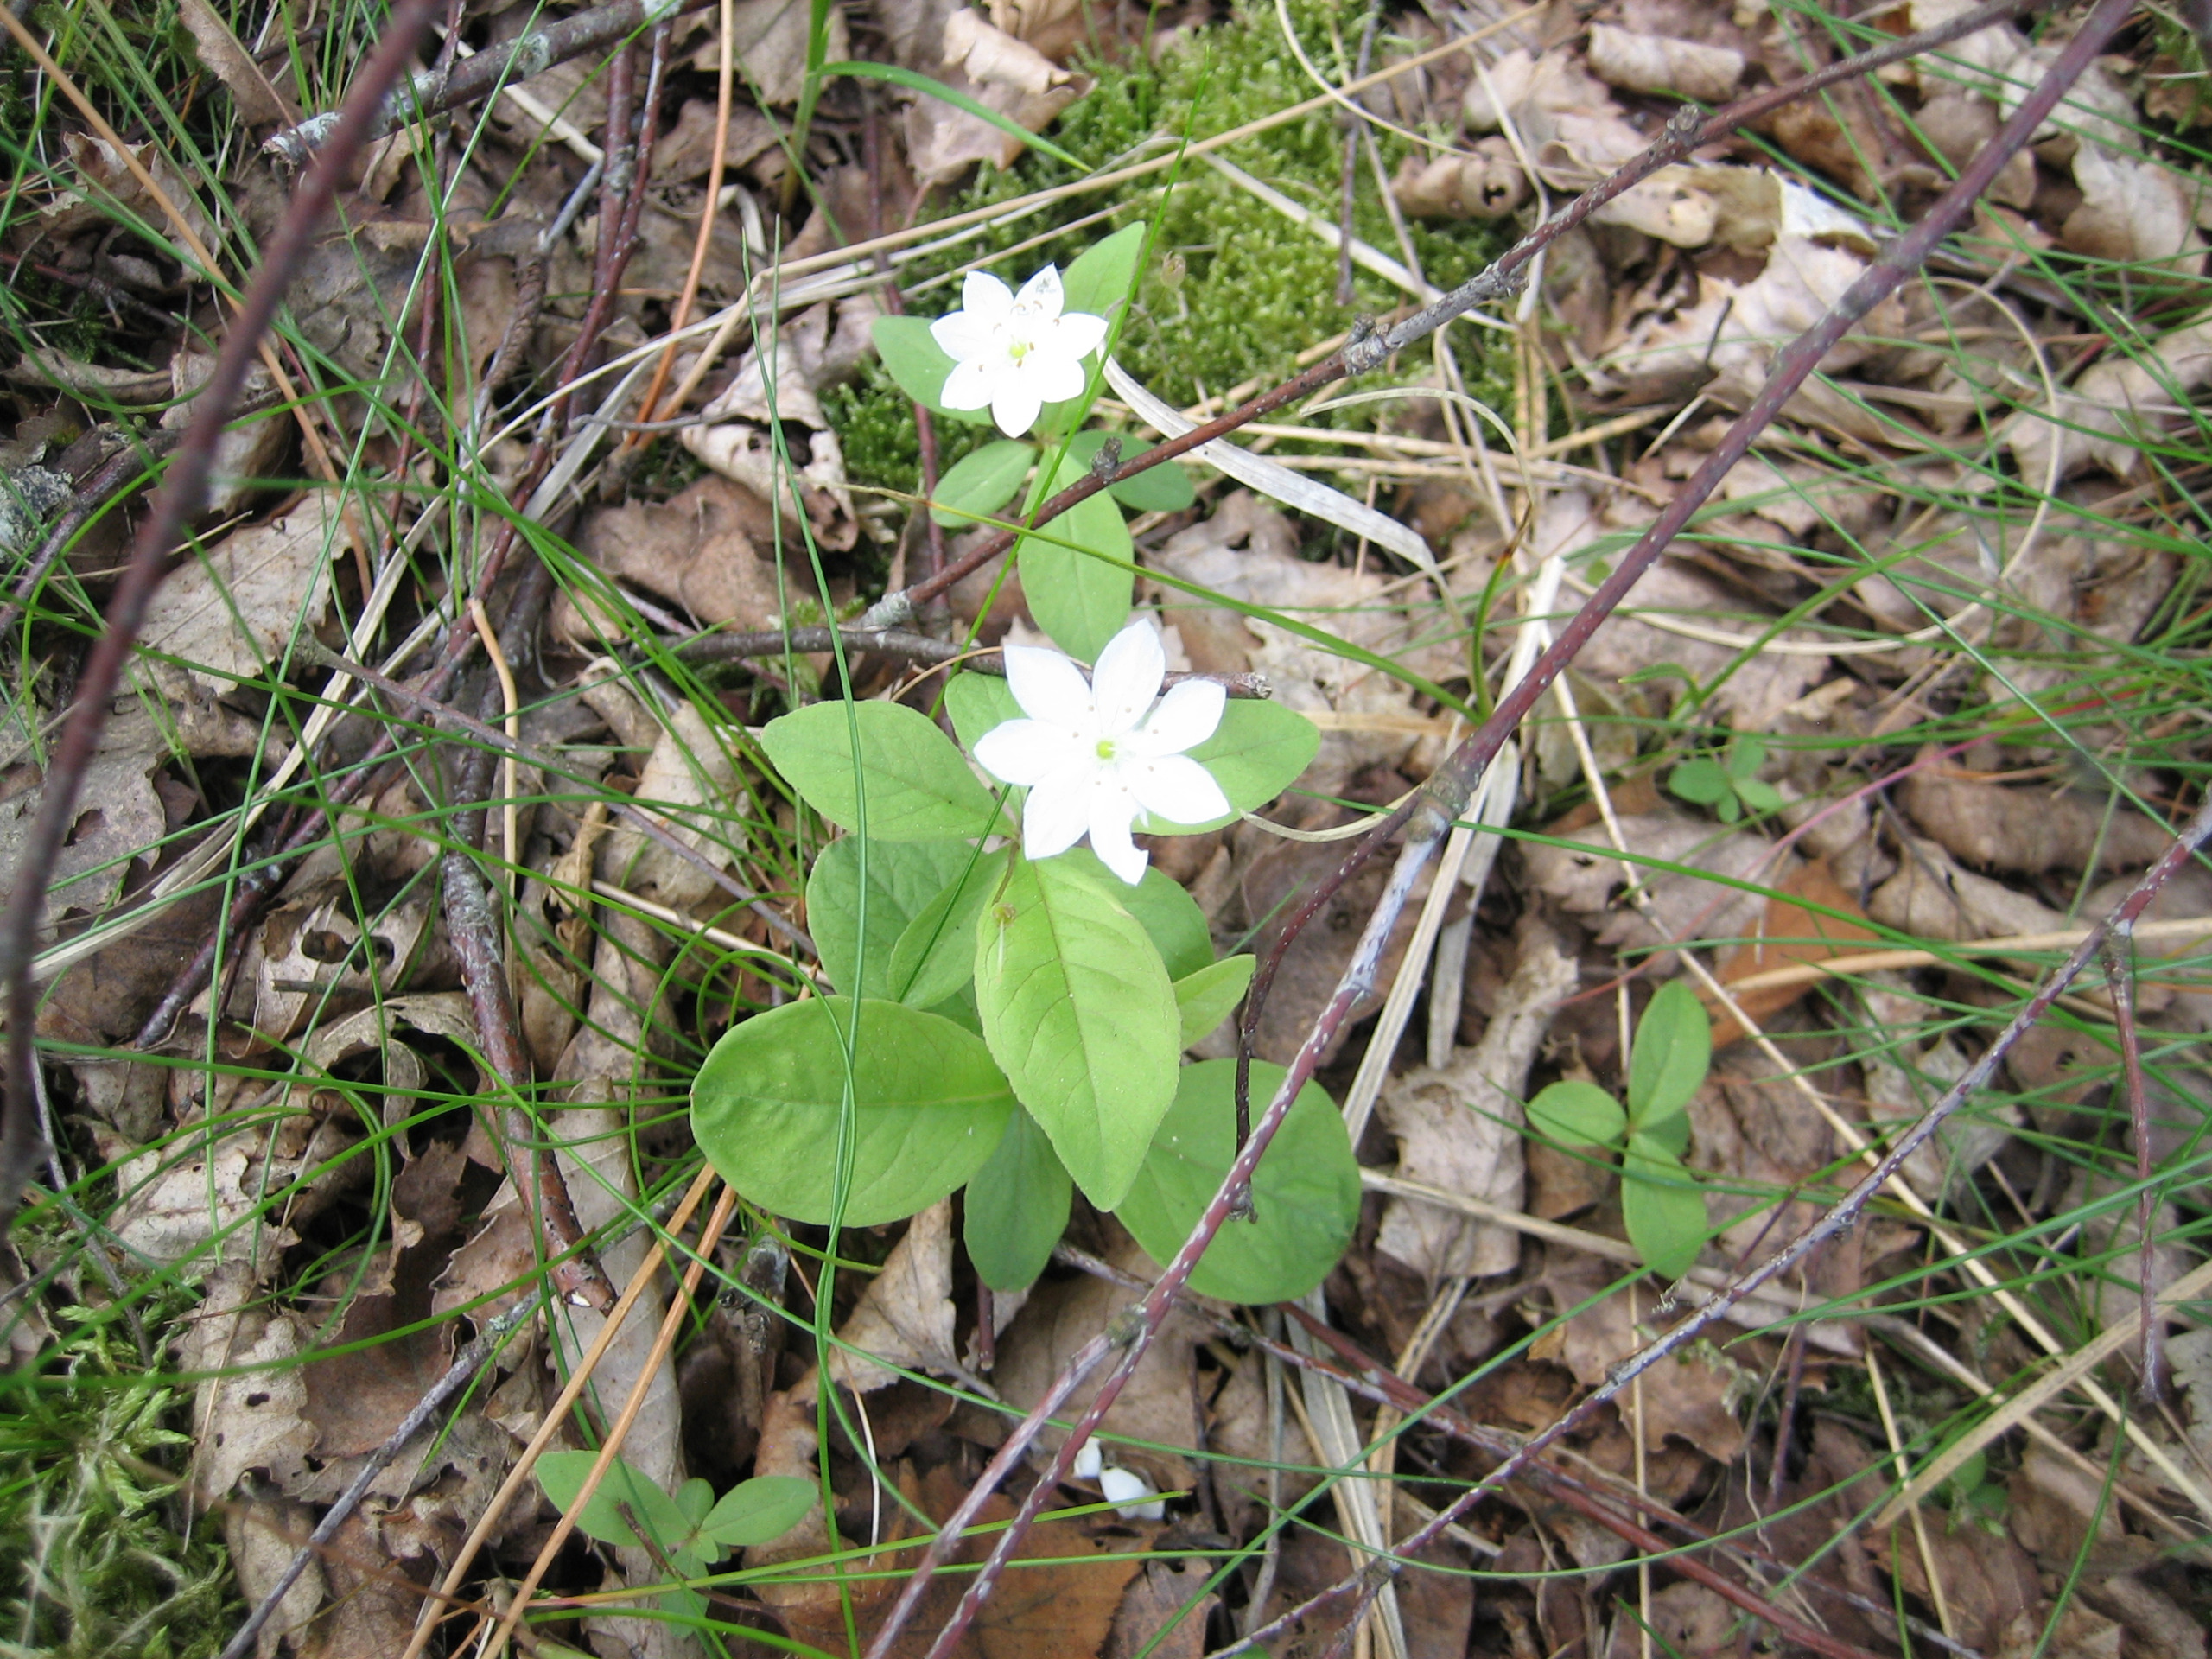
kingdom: Plantae
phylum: Tracheophyta
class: Magnoliopsida
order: Ericales
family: Primulaceae
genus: Lysimachia
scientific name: Lysimachia europaea
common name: Skovstjerne
